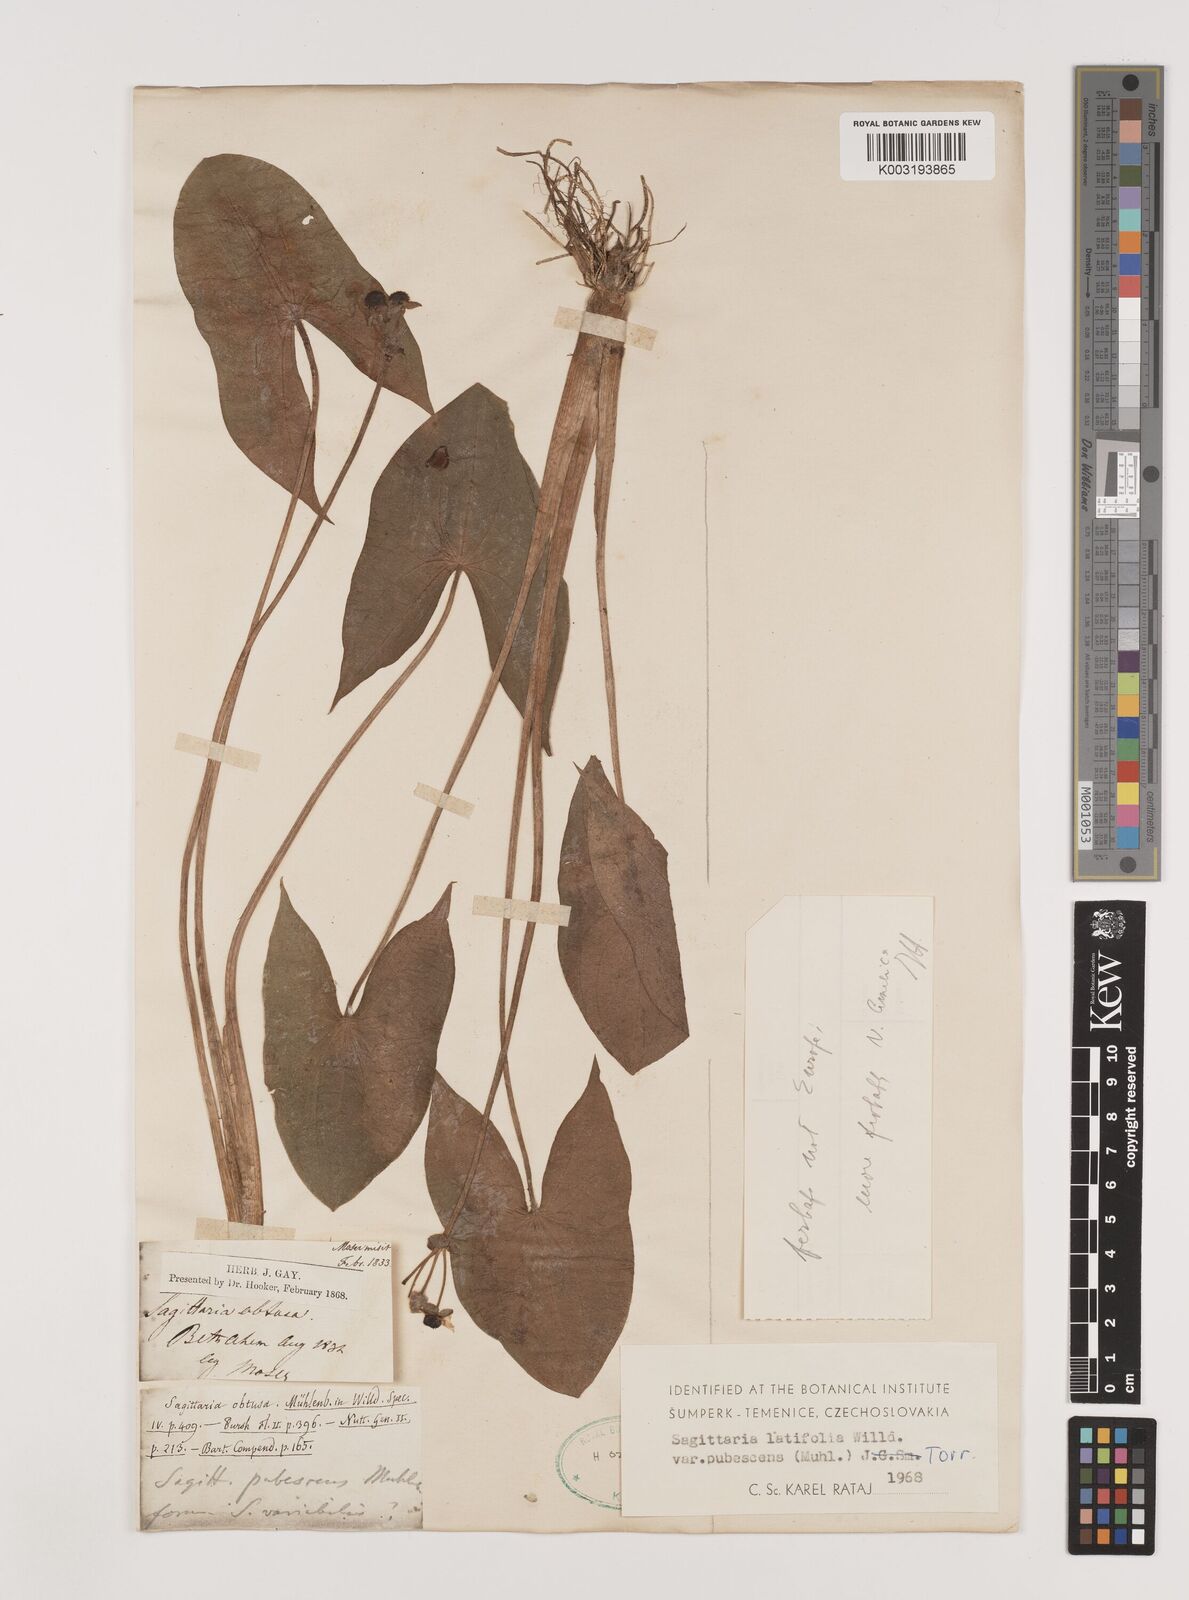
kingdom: Plantae
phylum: Tracheophyta
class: Liliopsida
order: Alismatales
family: Alismataceae
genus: Sagittaria
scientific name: Sagittaria latifolia
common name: Duck-potato
